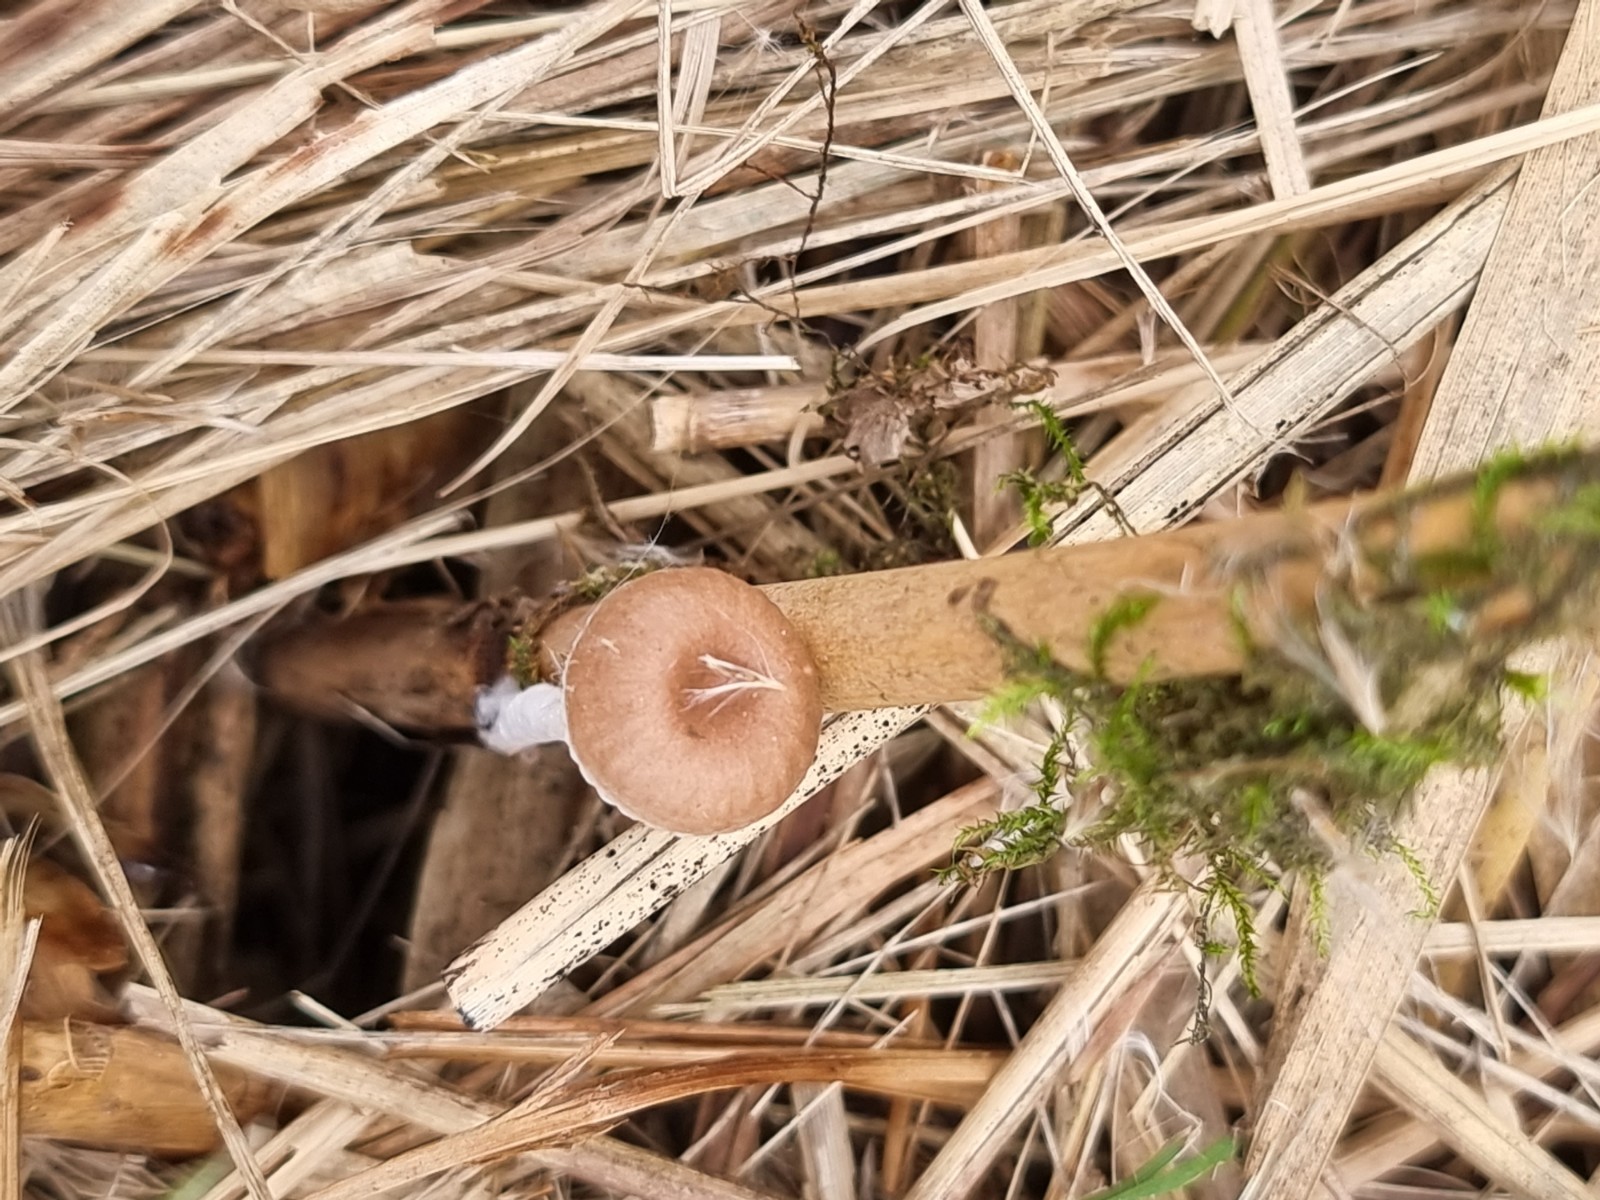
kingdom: Fungi
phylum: Basidiomycota
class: Agaricomycetes
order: Agaricales
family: Mycenaceae
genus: Mycena
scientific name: Mycena belliae
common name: tagrørs-huesvamp
